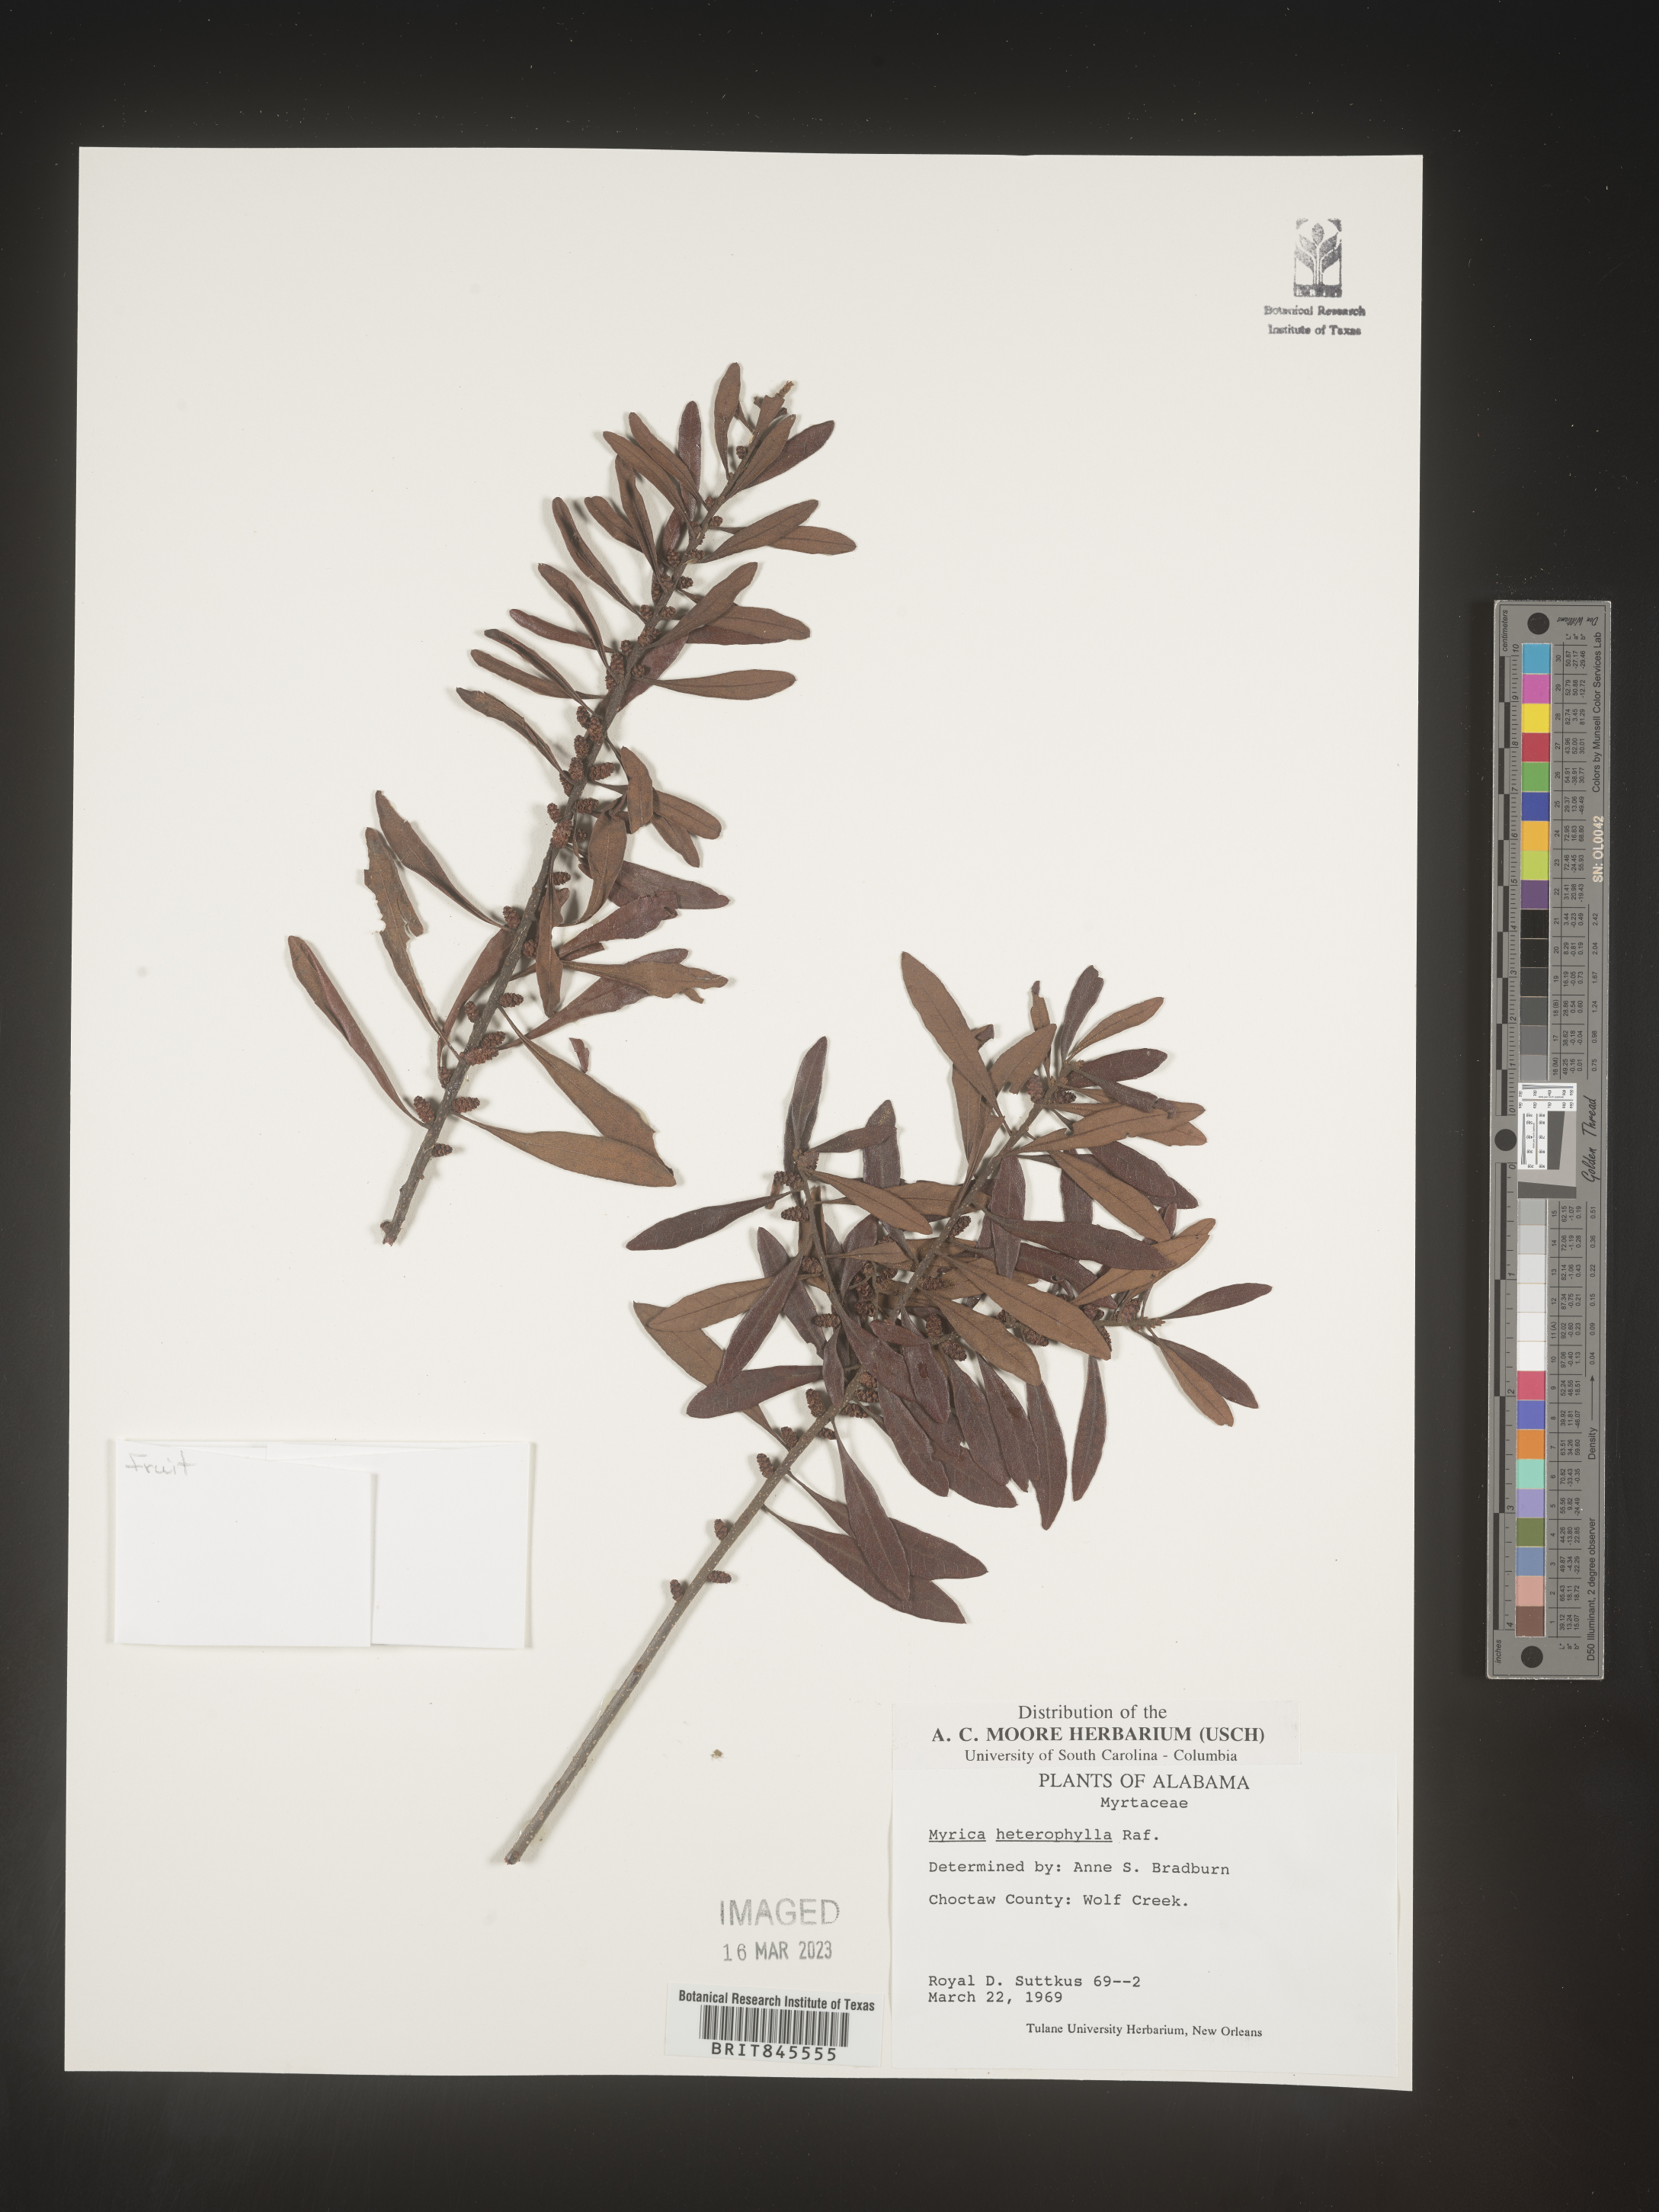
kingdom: Plantae
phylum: Tracheophyta
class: Magnoliopsida
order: Fagales
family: Myricaceae
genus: Morella
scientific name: Morella caroliniensis
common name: Evergreen bayberry
